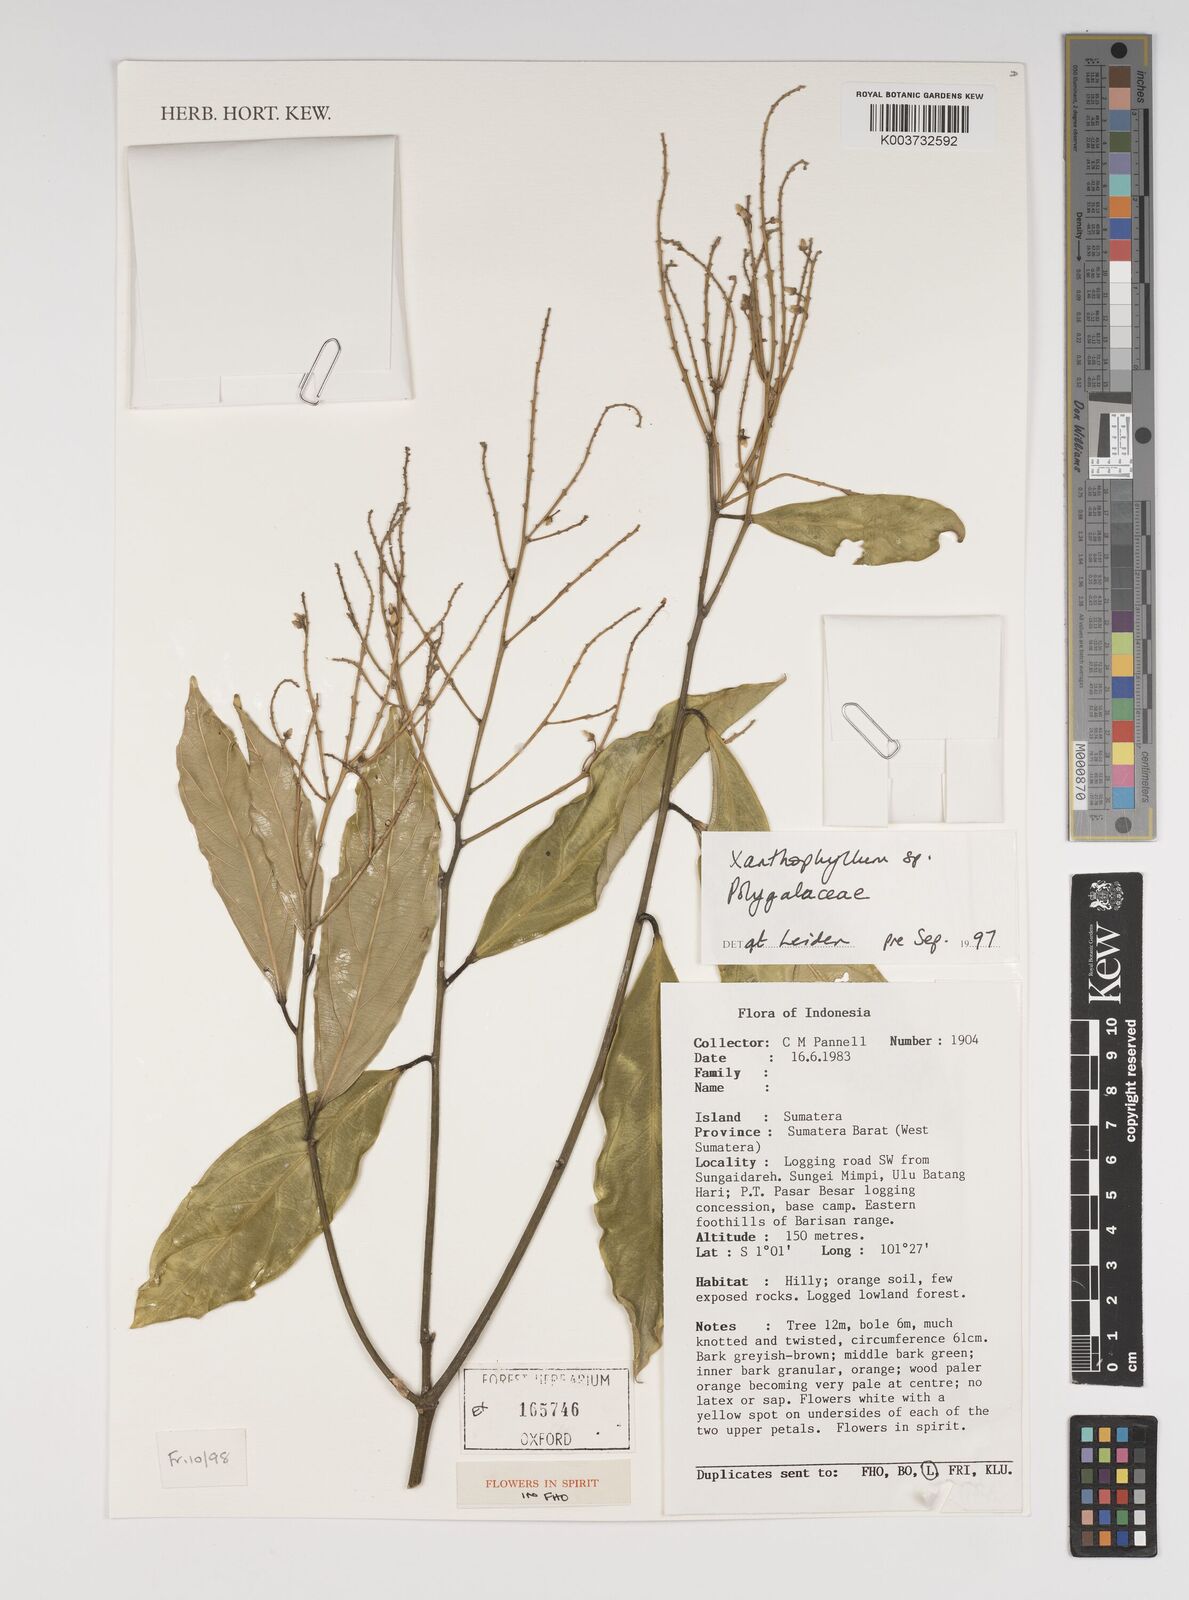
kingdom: Plantae
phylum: Tracheophyta
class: Magnoliopsida
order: Fabales
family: Polygalaceae
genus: Xanthophyllum
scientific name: Xanthophyllum
